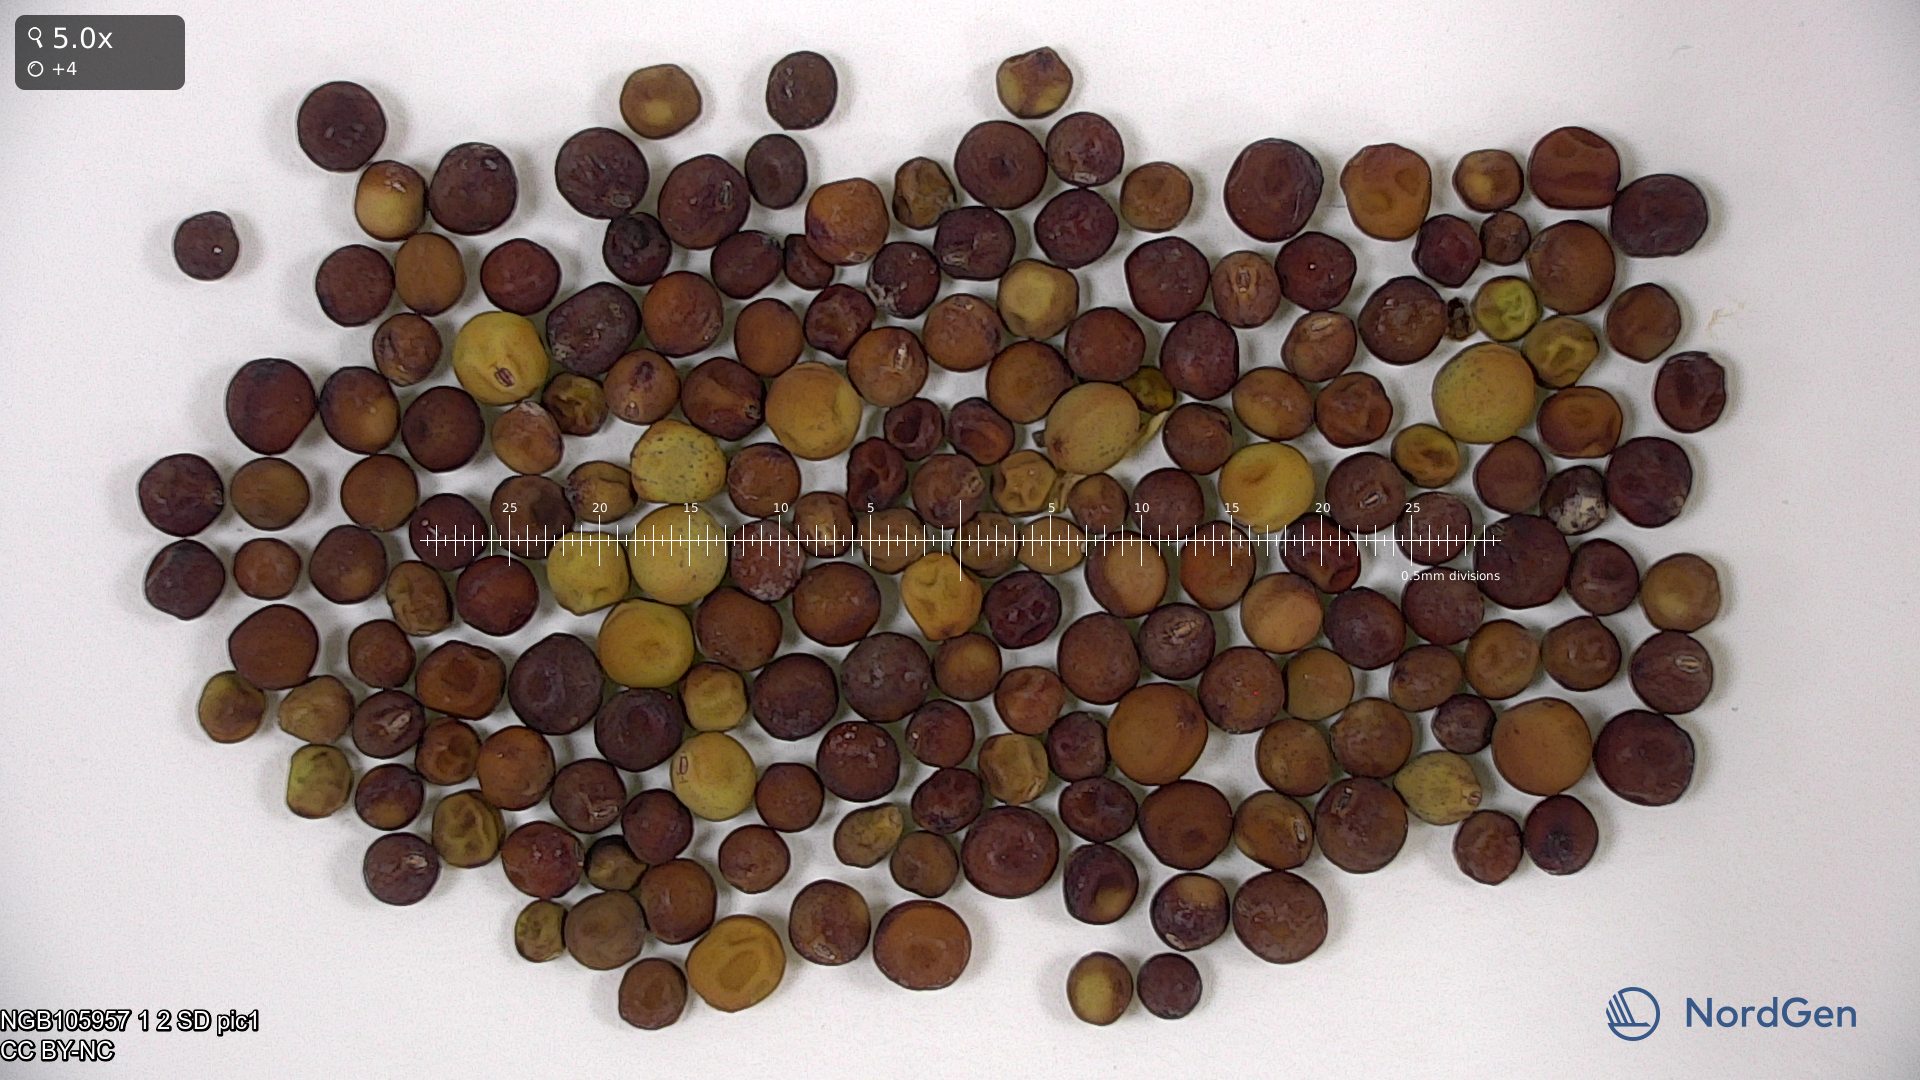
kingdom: Plantae
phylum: Tracheophyta
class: Magnoliopsida
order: Fabales
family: Fabaceae
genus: Lathyrus
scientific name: Lathyrus oleraceus
